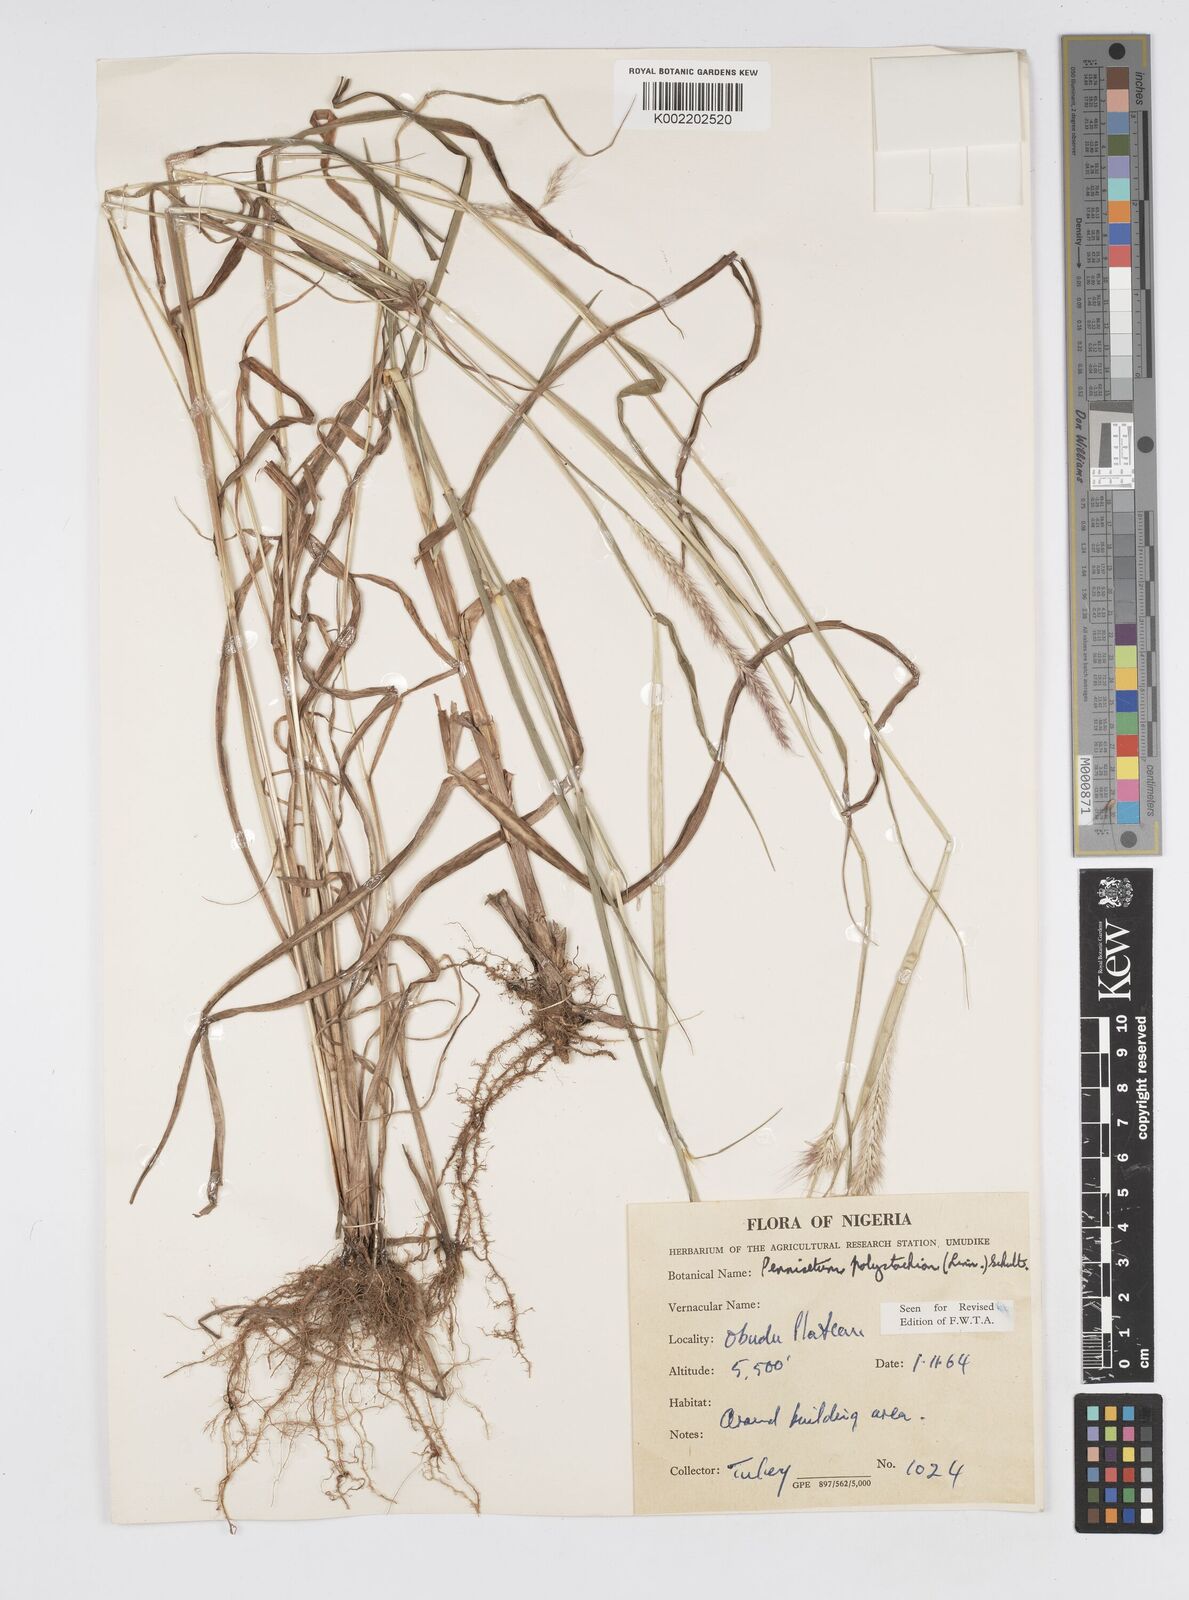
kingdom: Plantae
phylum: Tracheophyta
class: Liliopsida
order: Poales
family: Poaceae
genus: Cenchrus
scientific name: Cenchrus Pennisetum spec
